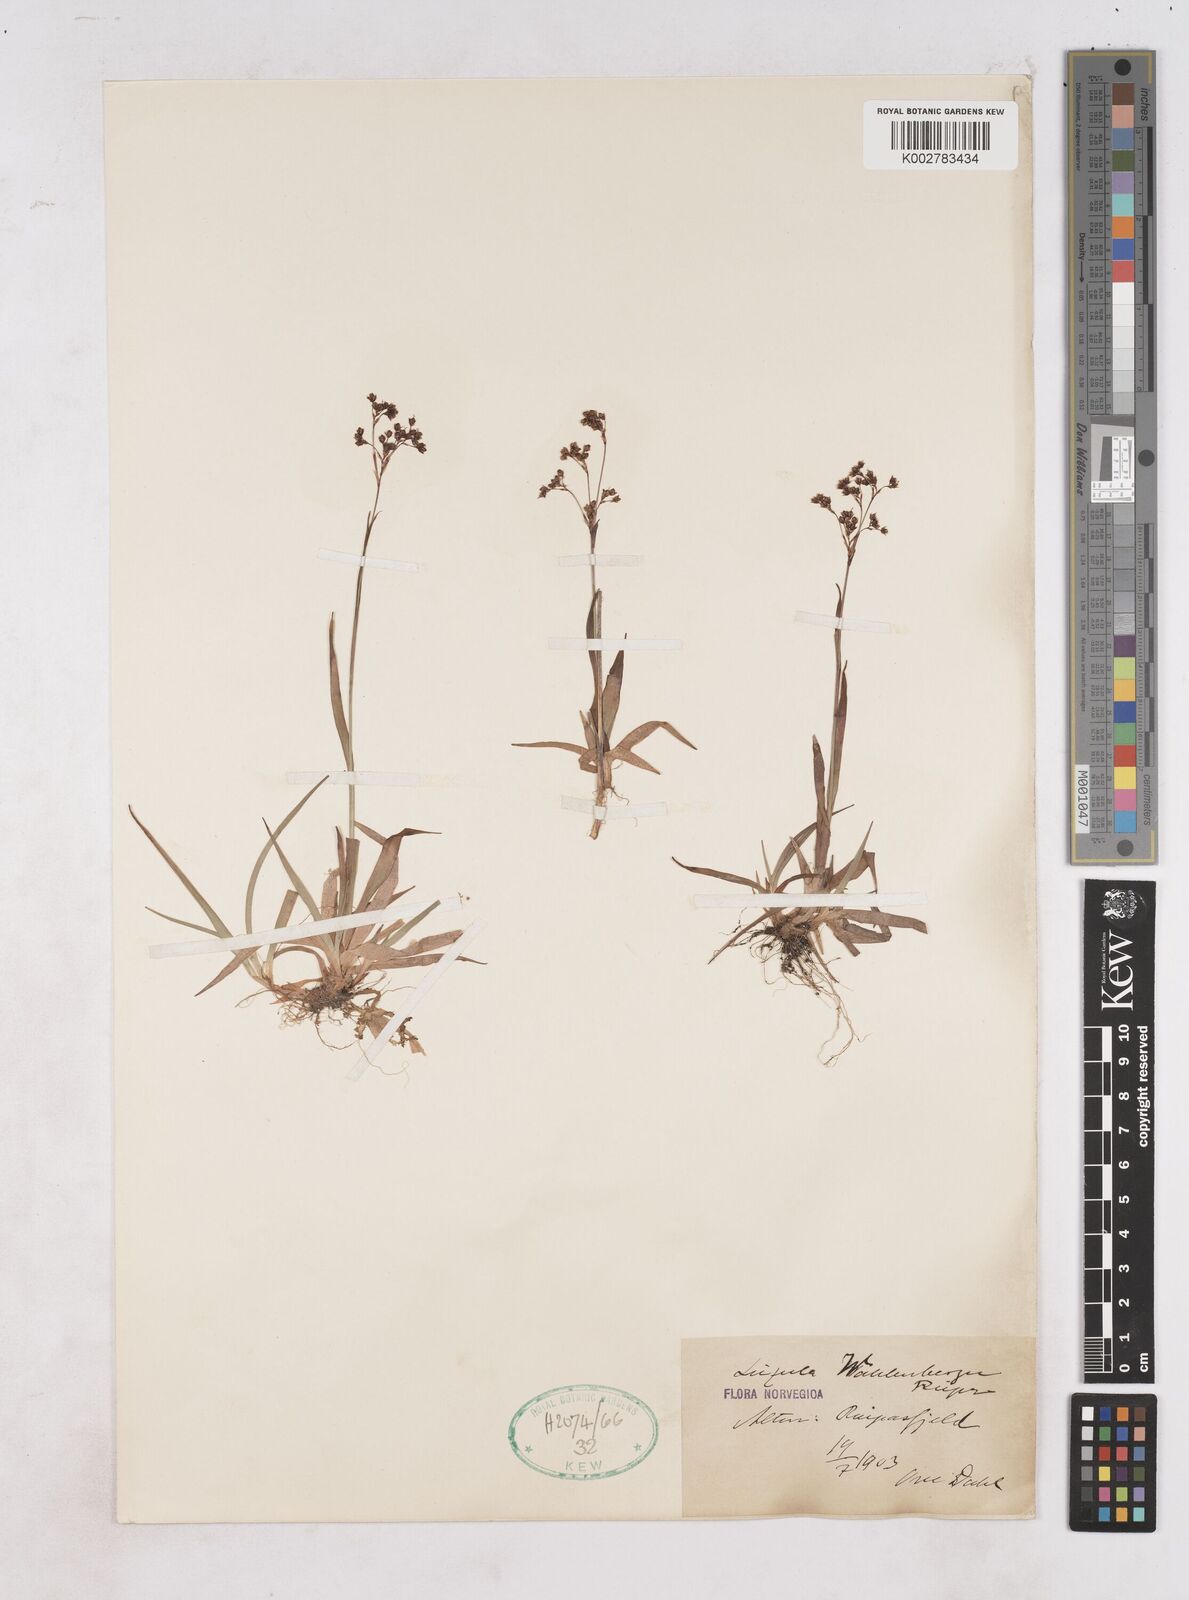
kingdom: Plantae
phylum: Tracheophyta
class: Liliopsida
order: Poales
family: Juncaceae
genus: Luzula
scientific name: Luzula wahlenbergii
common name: Wahlenberg's wood-rush
